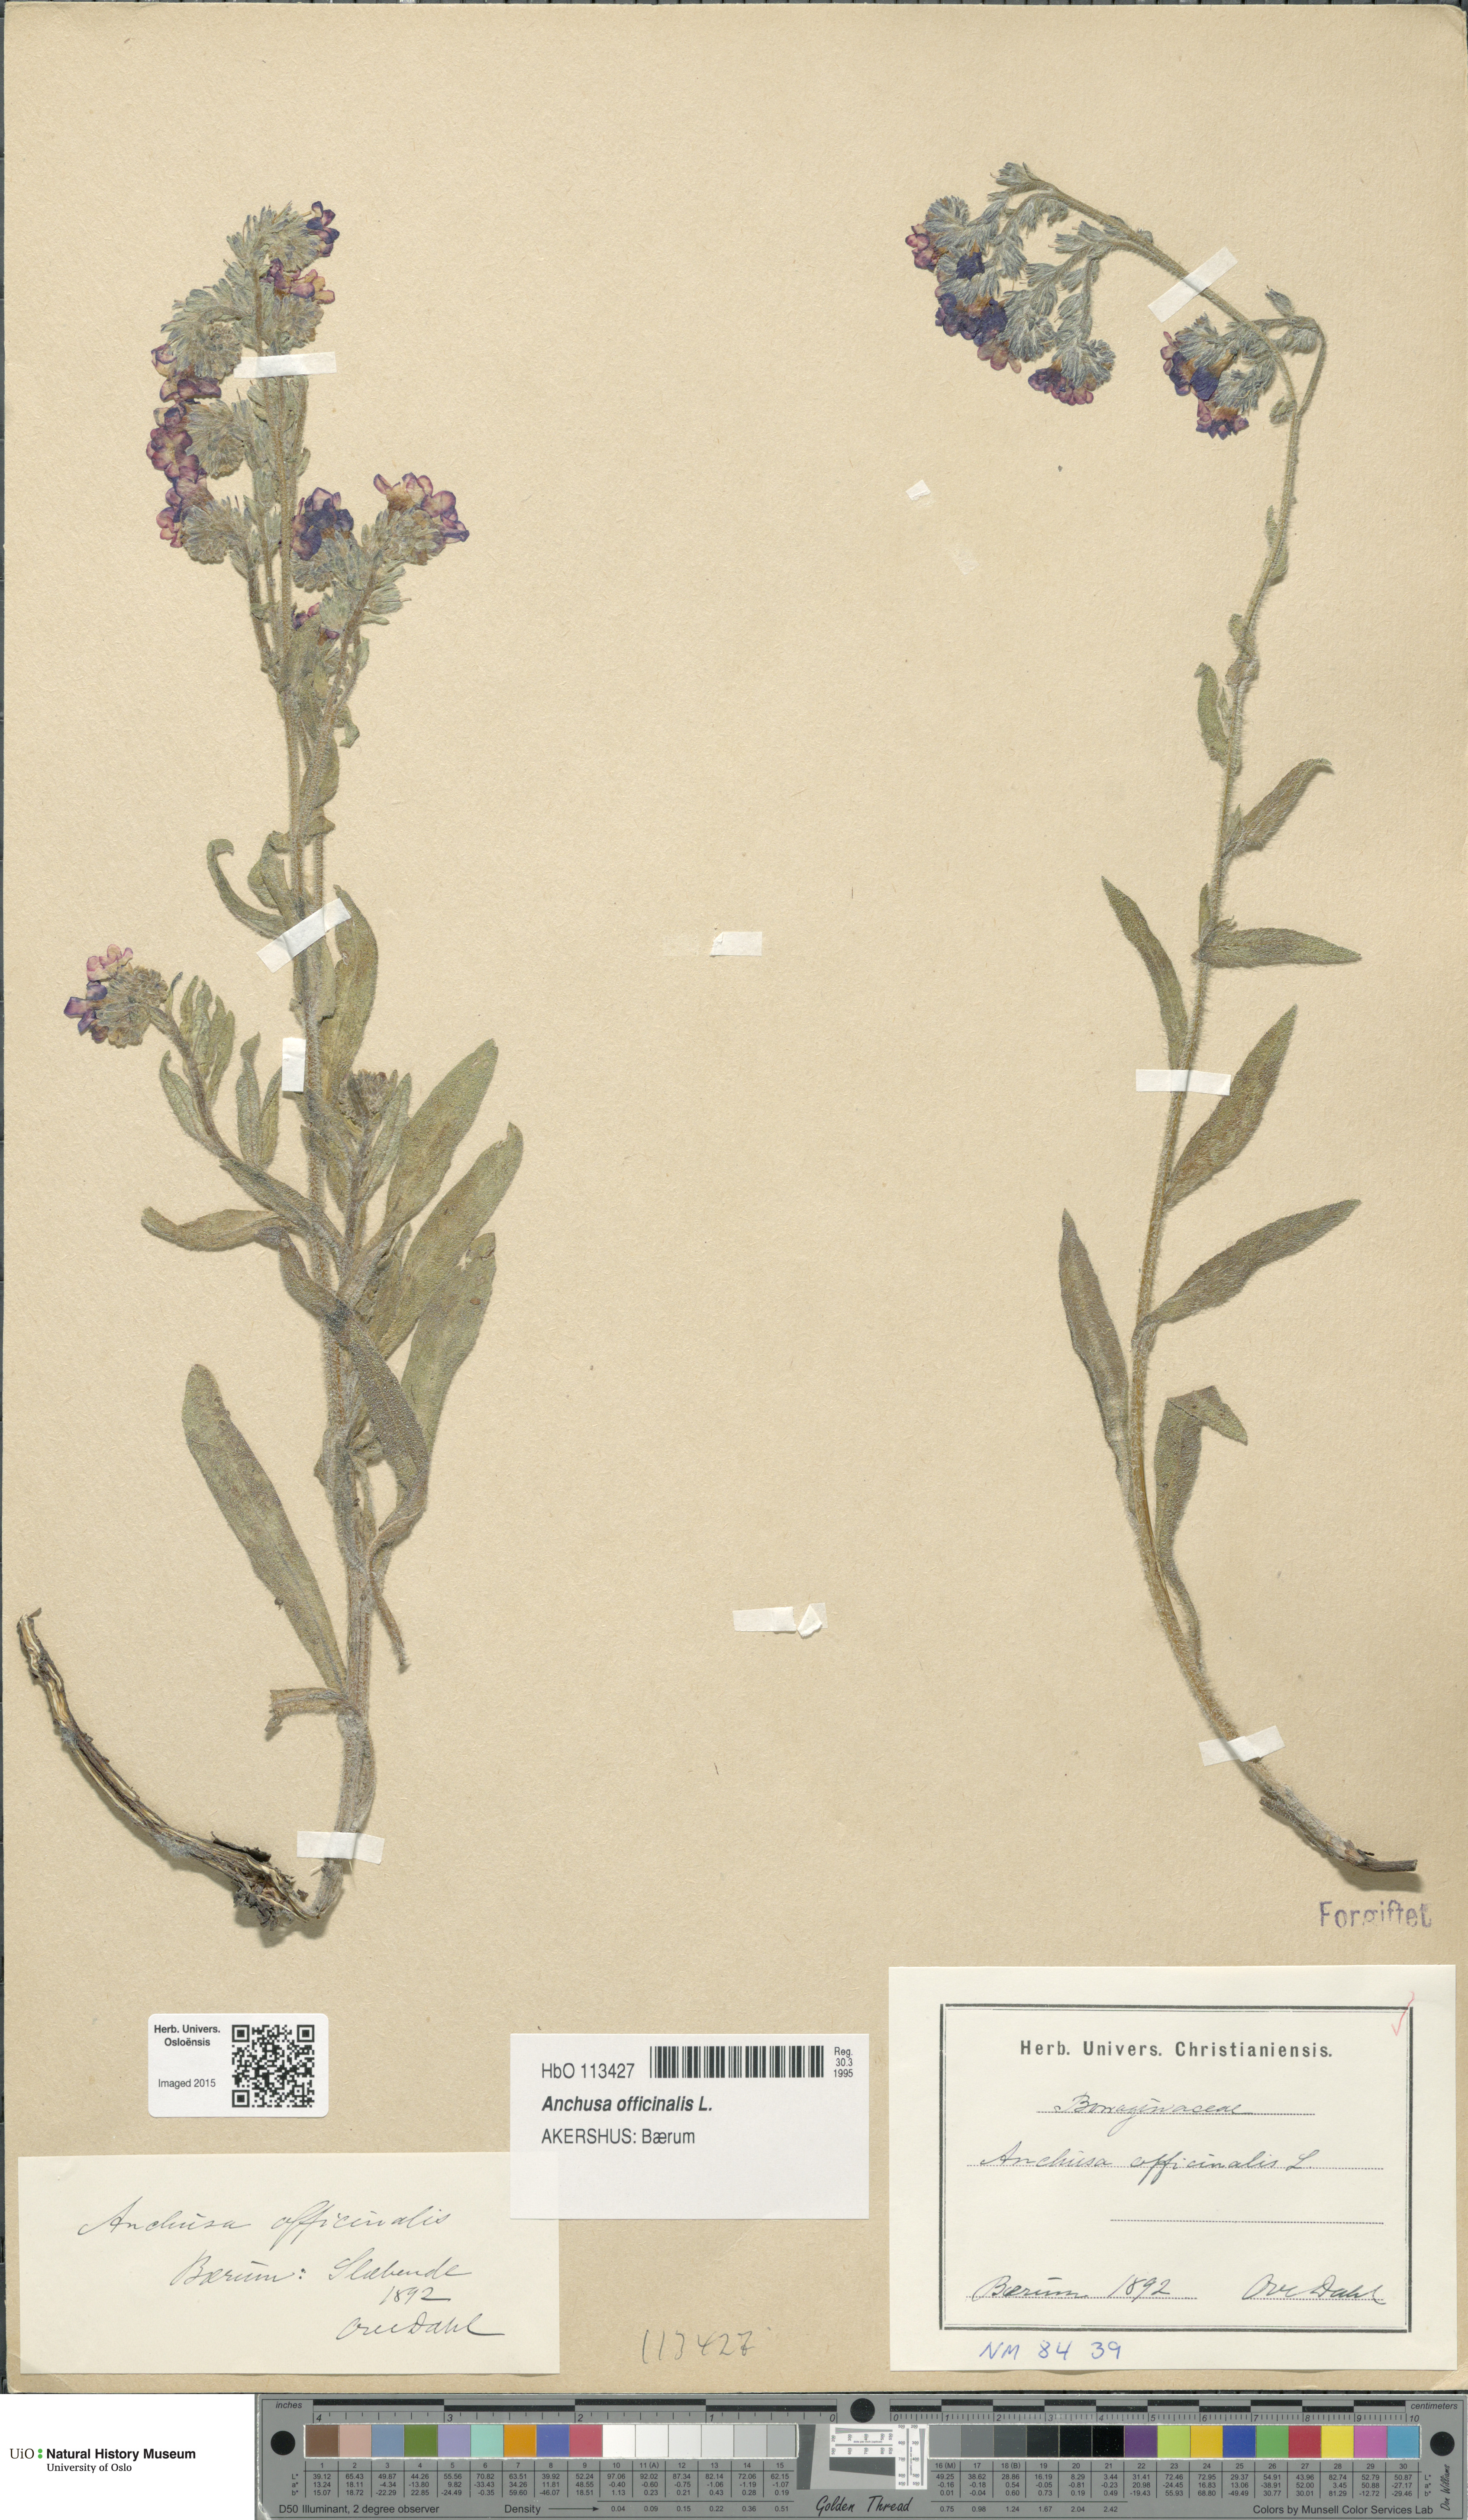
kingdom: Plantae
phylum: Tracheophyta
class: Magnoliopsida
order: Boraginales
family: Boraginaceae
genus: Anchusa
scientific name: Anchusa officinalis
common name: Alkanet
